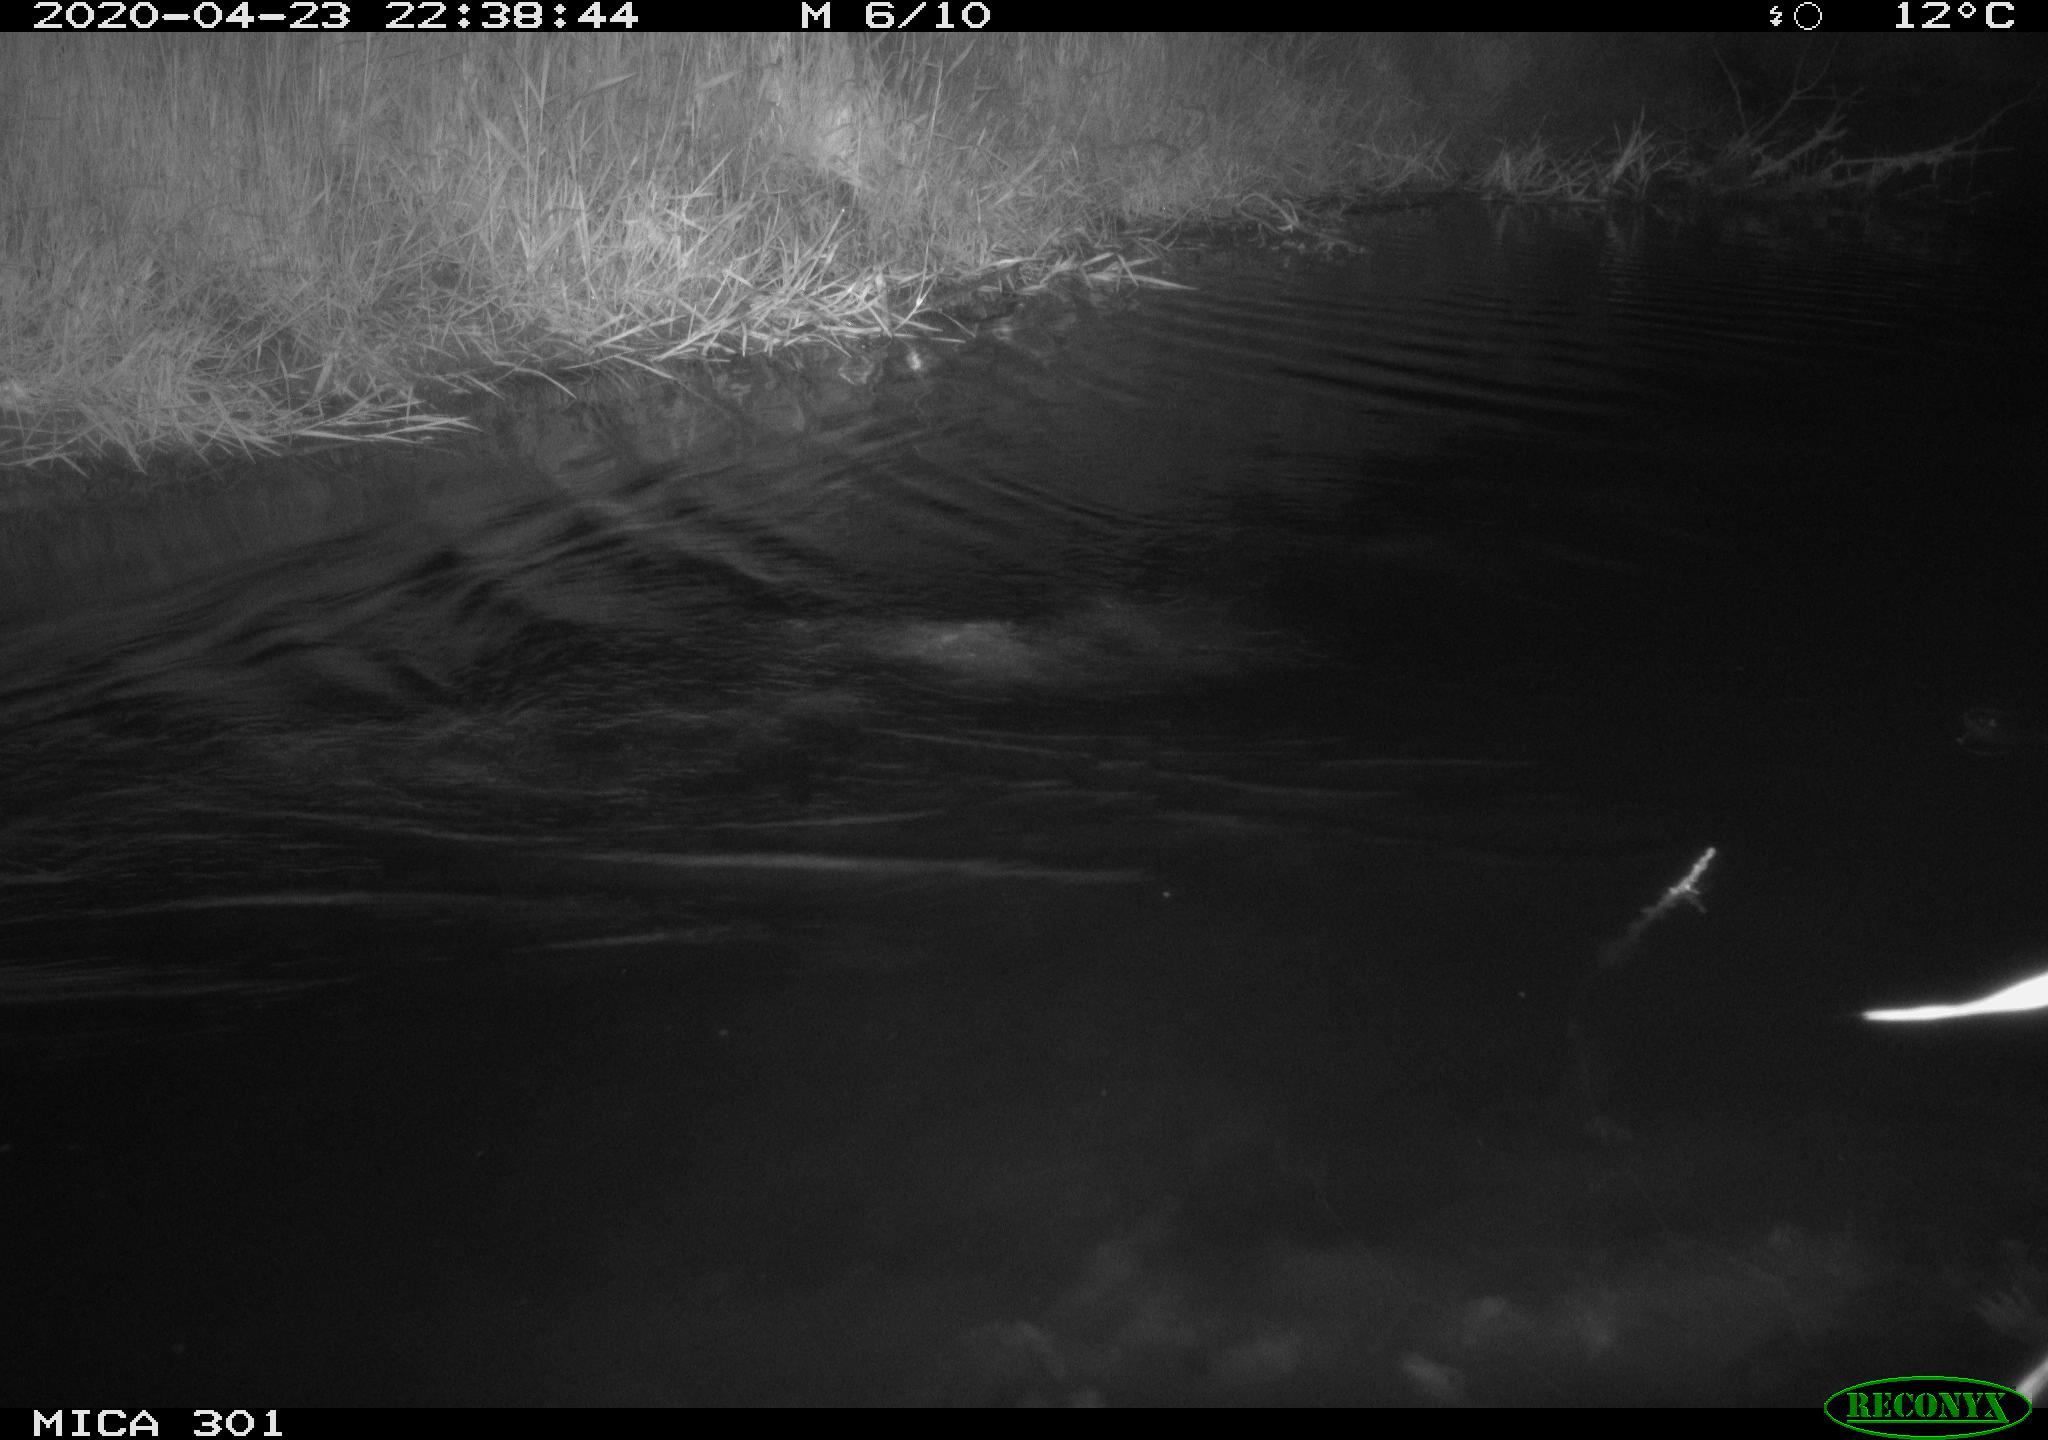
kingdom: Animalia
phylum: Chordata
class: Mammalia
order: Rodentia
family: Castoridae
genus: Castor
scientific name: Castor fiber
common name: Eurasian beaver
